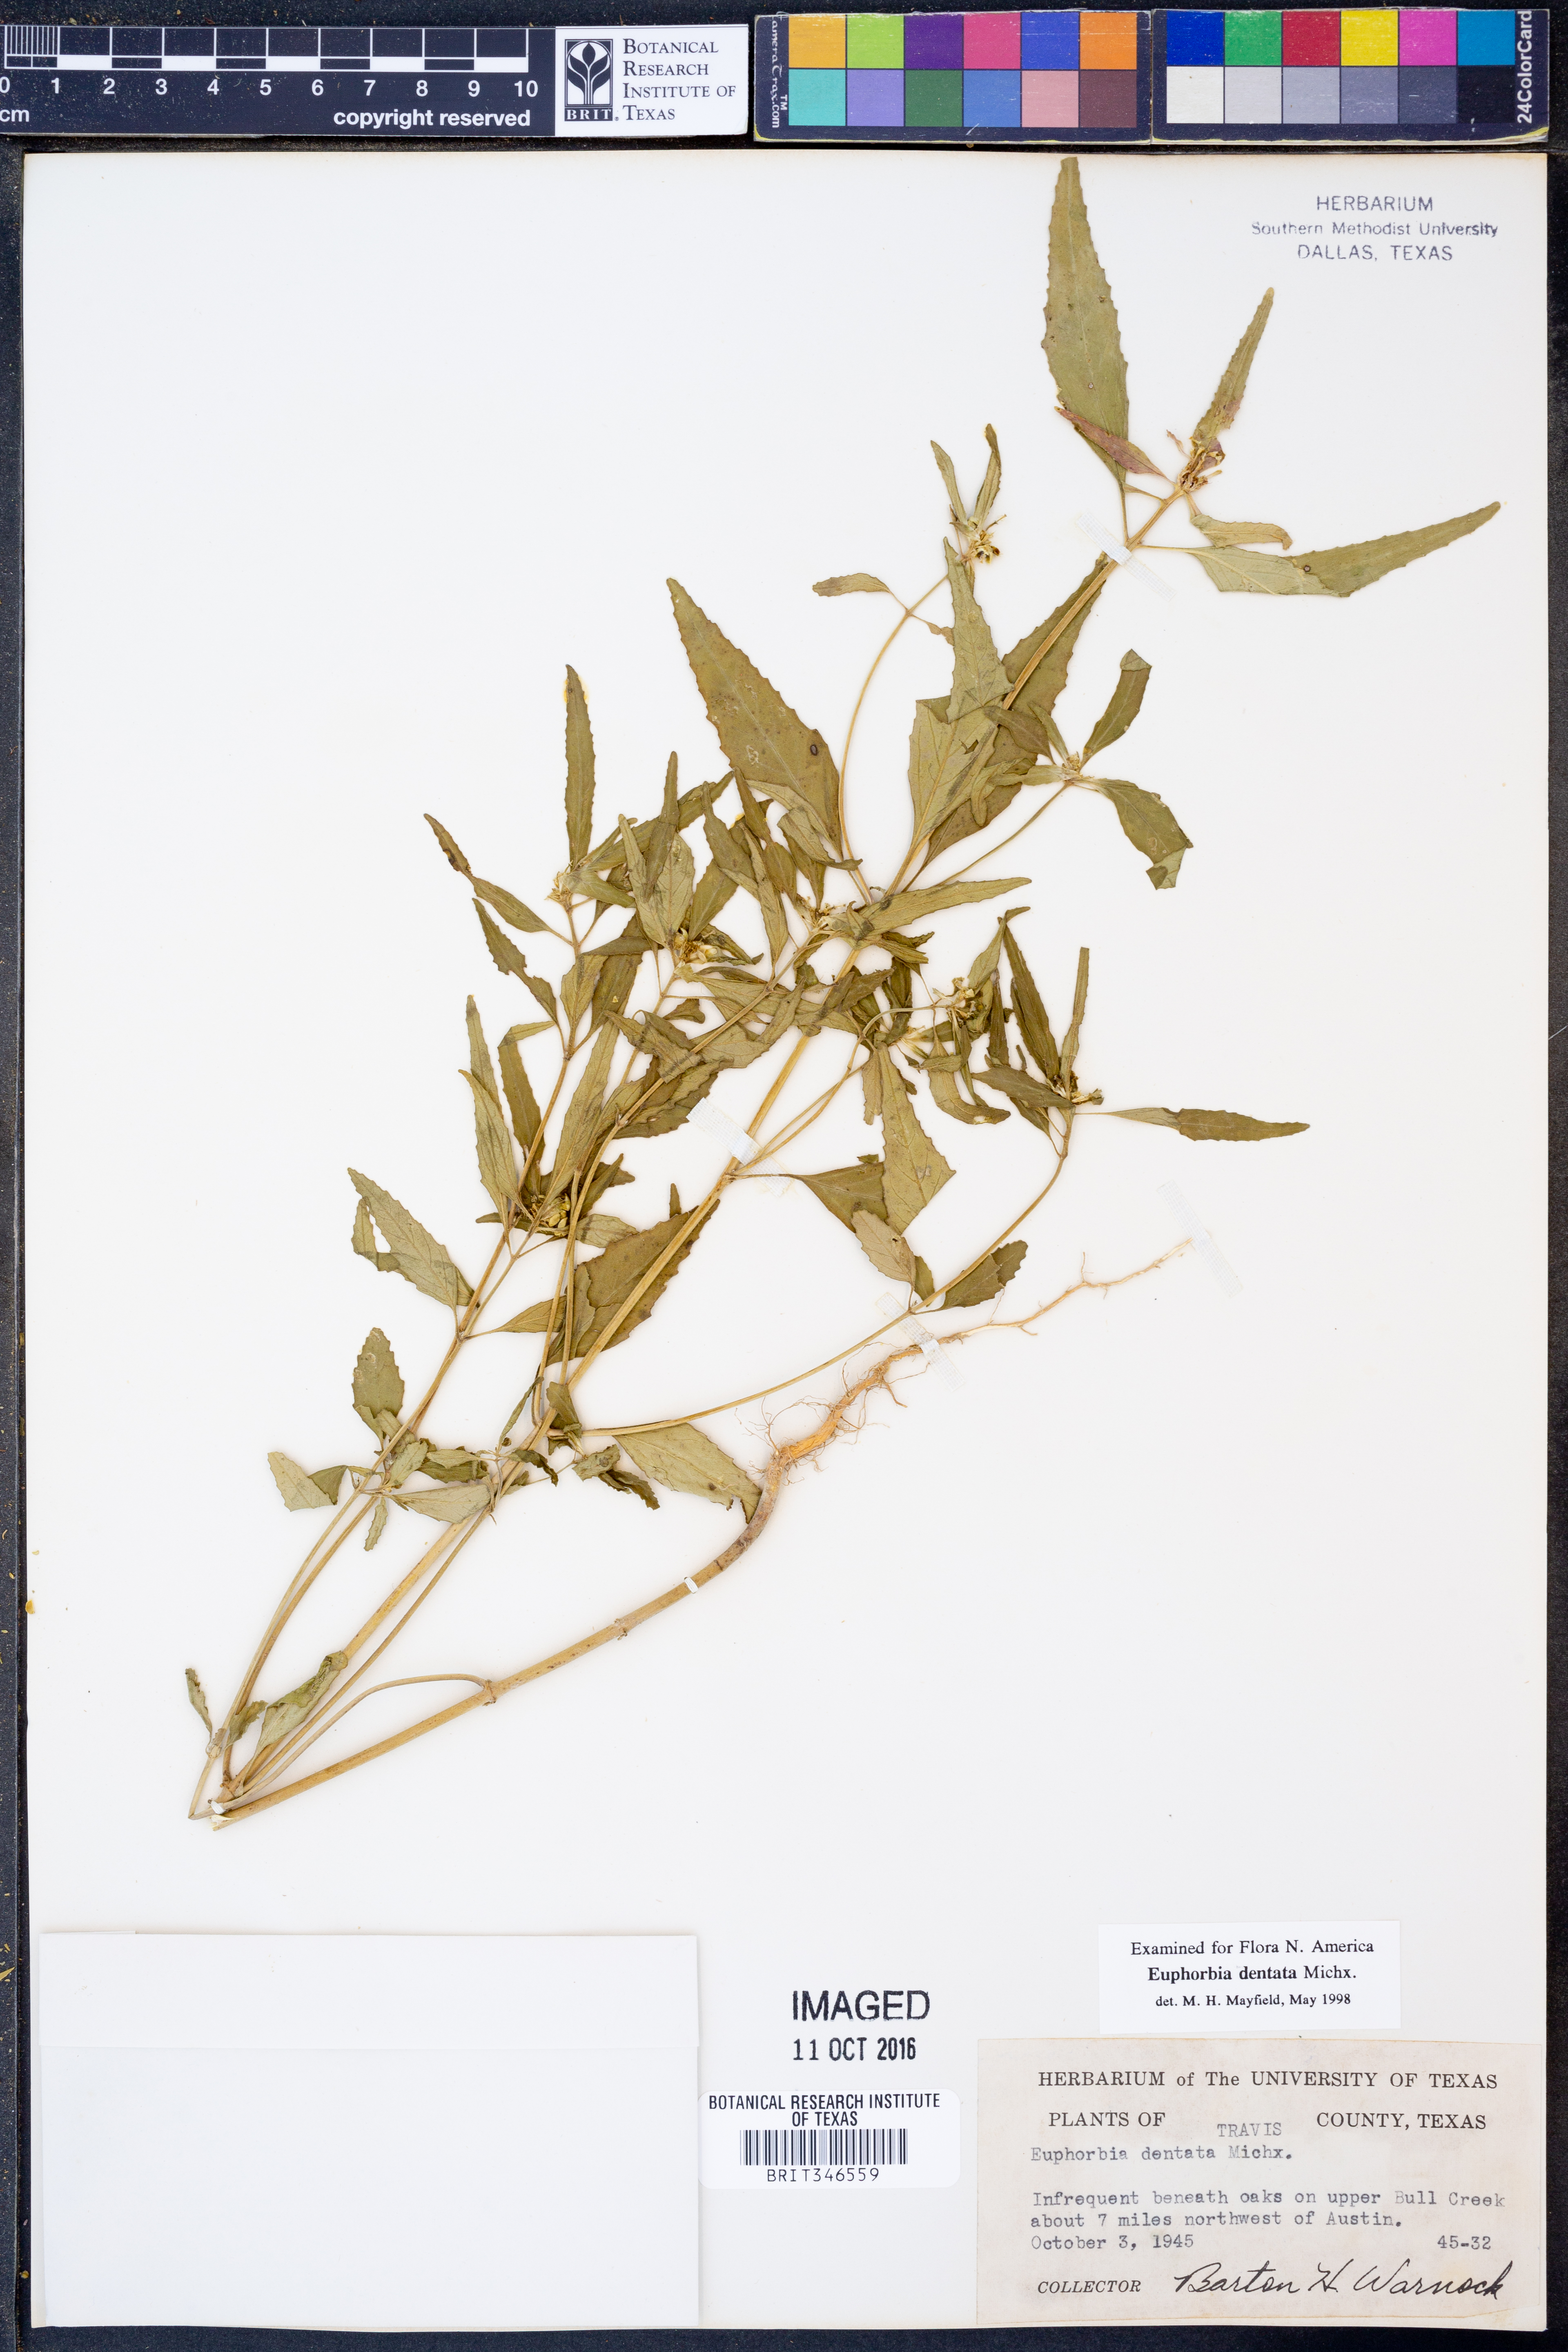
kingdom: Plantae
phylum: Tracheophyta
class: Magnoliopsida
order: Malpighiales
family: Euphorbiaceae
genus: Euphorbia
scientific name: Euphorbia dentata
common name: Dentate spurge
